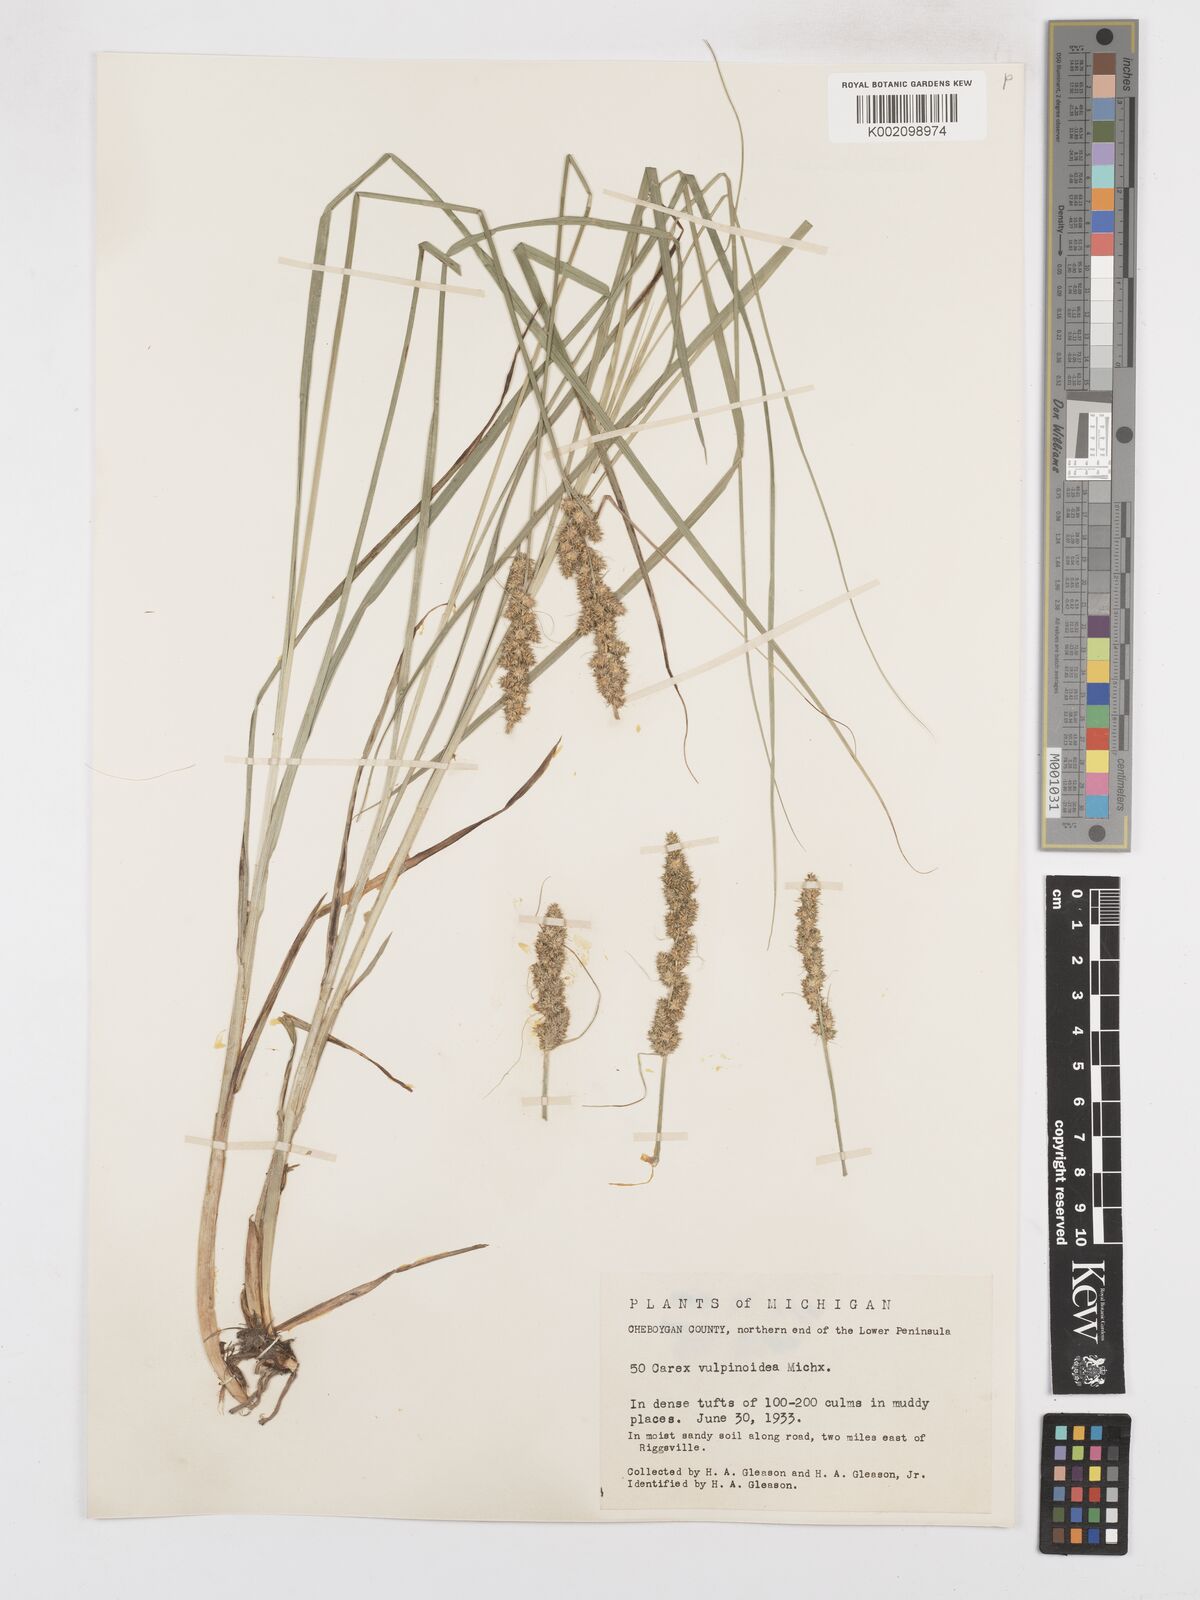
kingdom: Plantae
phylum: Tracheophyta
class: Liliopsida
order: Poales
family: Cyperaceae
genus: Carex
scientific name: Carex vulpinoidea
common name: American fox-sedge
